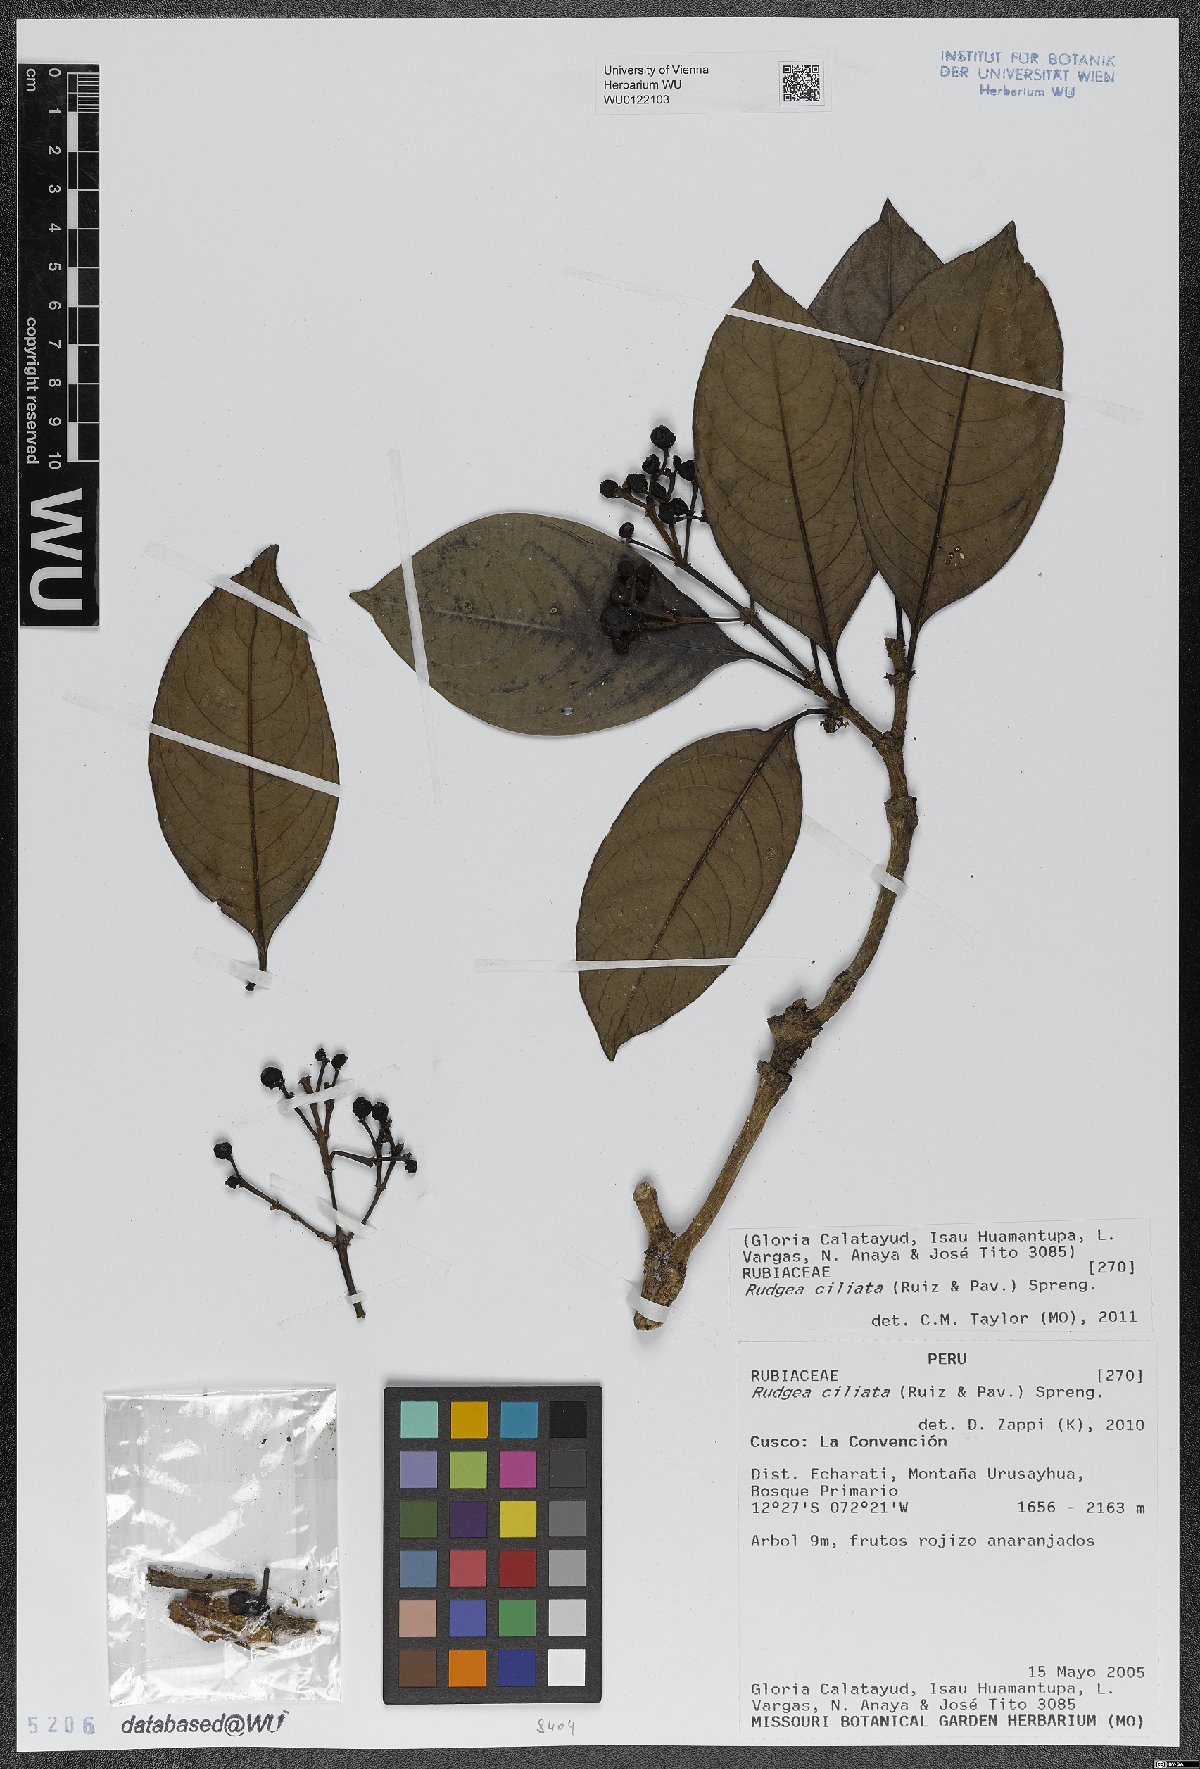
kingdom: Plantae
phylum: Tracheophyta
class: Magnoliopsida
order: Gentianales
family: Rubiaceae
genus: Rudgea
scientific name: Rudgea ciliata
